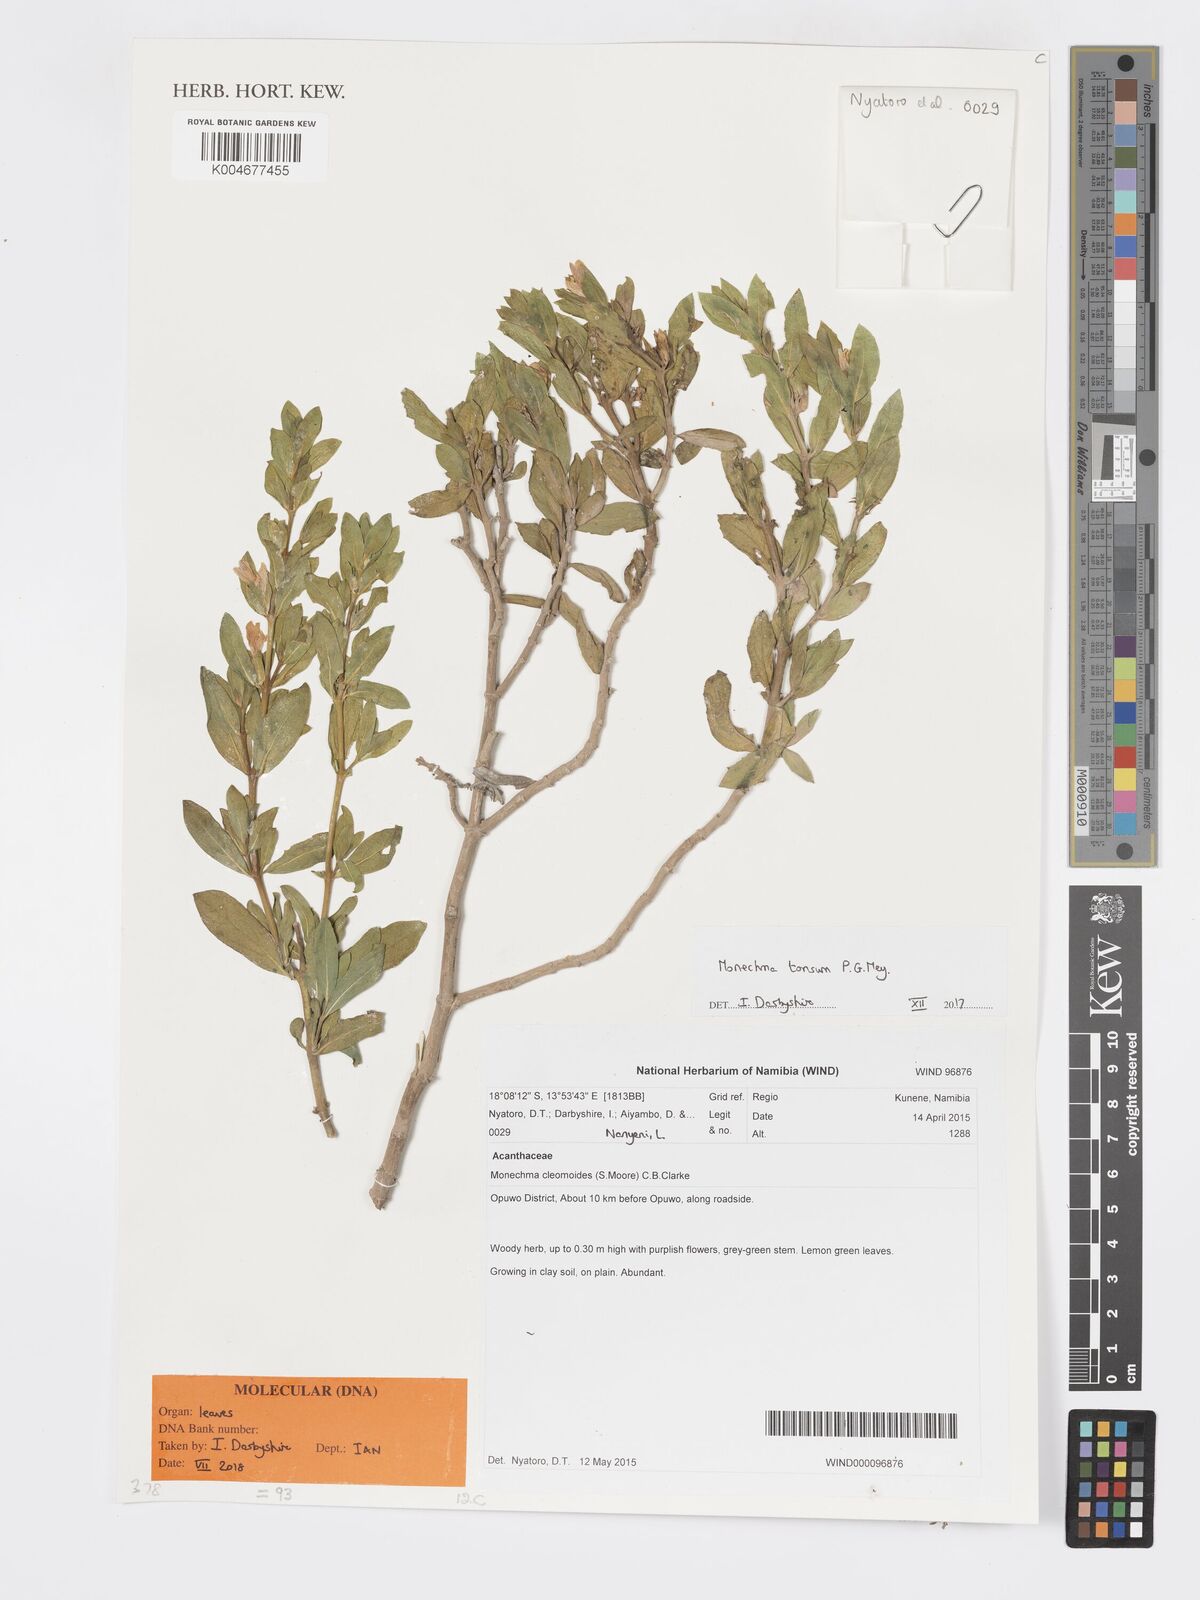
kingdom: Plantae
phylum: Tracheophyta
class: Magnoliopsida
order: Lamiales
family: Acanthaceae
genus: Pogonospermum
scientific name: Pogonospermum
